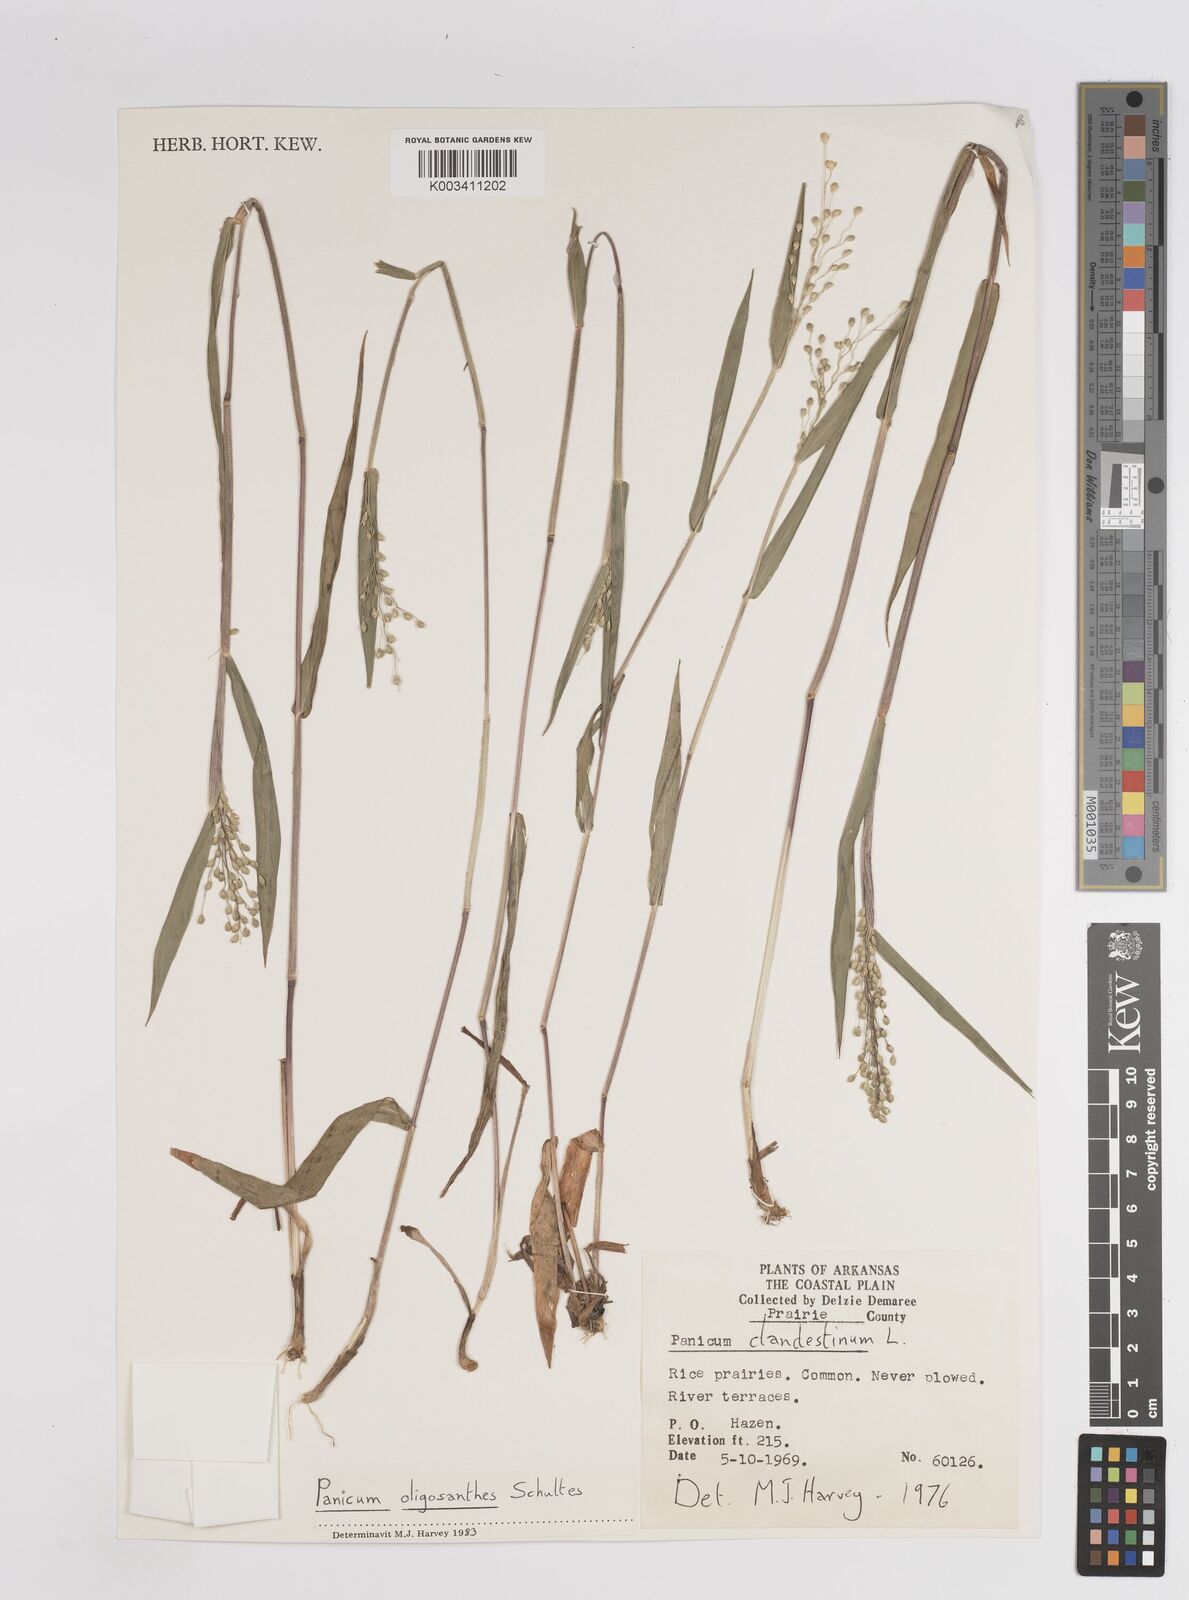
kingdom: Plantae
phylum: Tracheophyta
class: Liliopsida
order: Poales
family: Poaceae
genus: Dichanthelium
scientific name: Dichanthelium oligosanthes
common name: Few-anther obscuregrass
